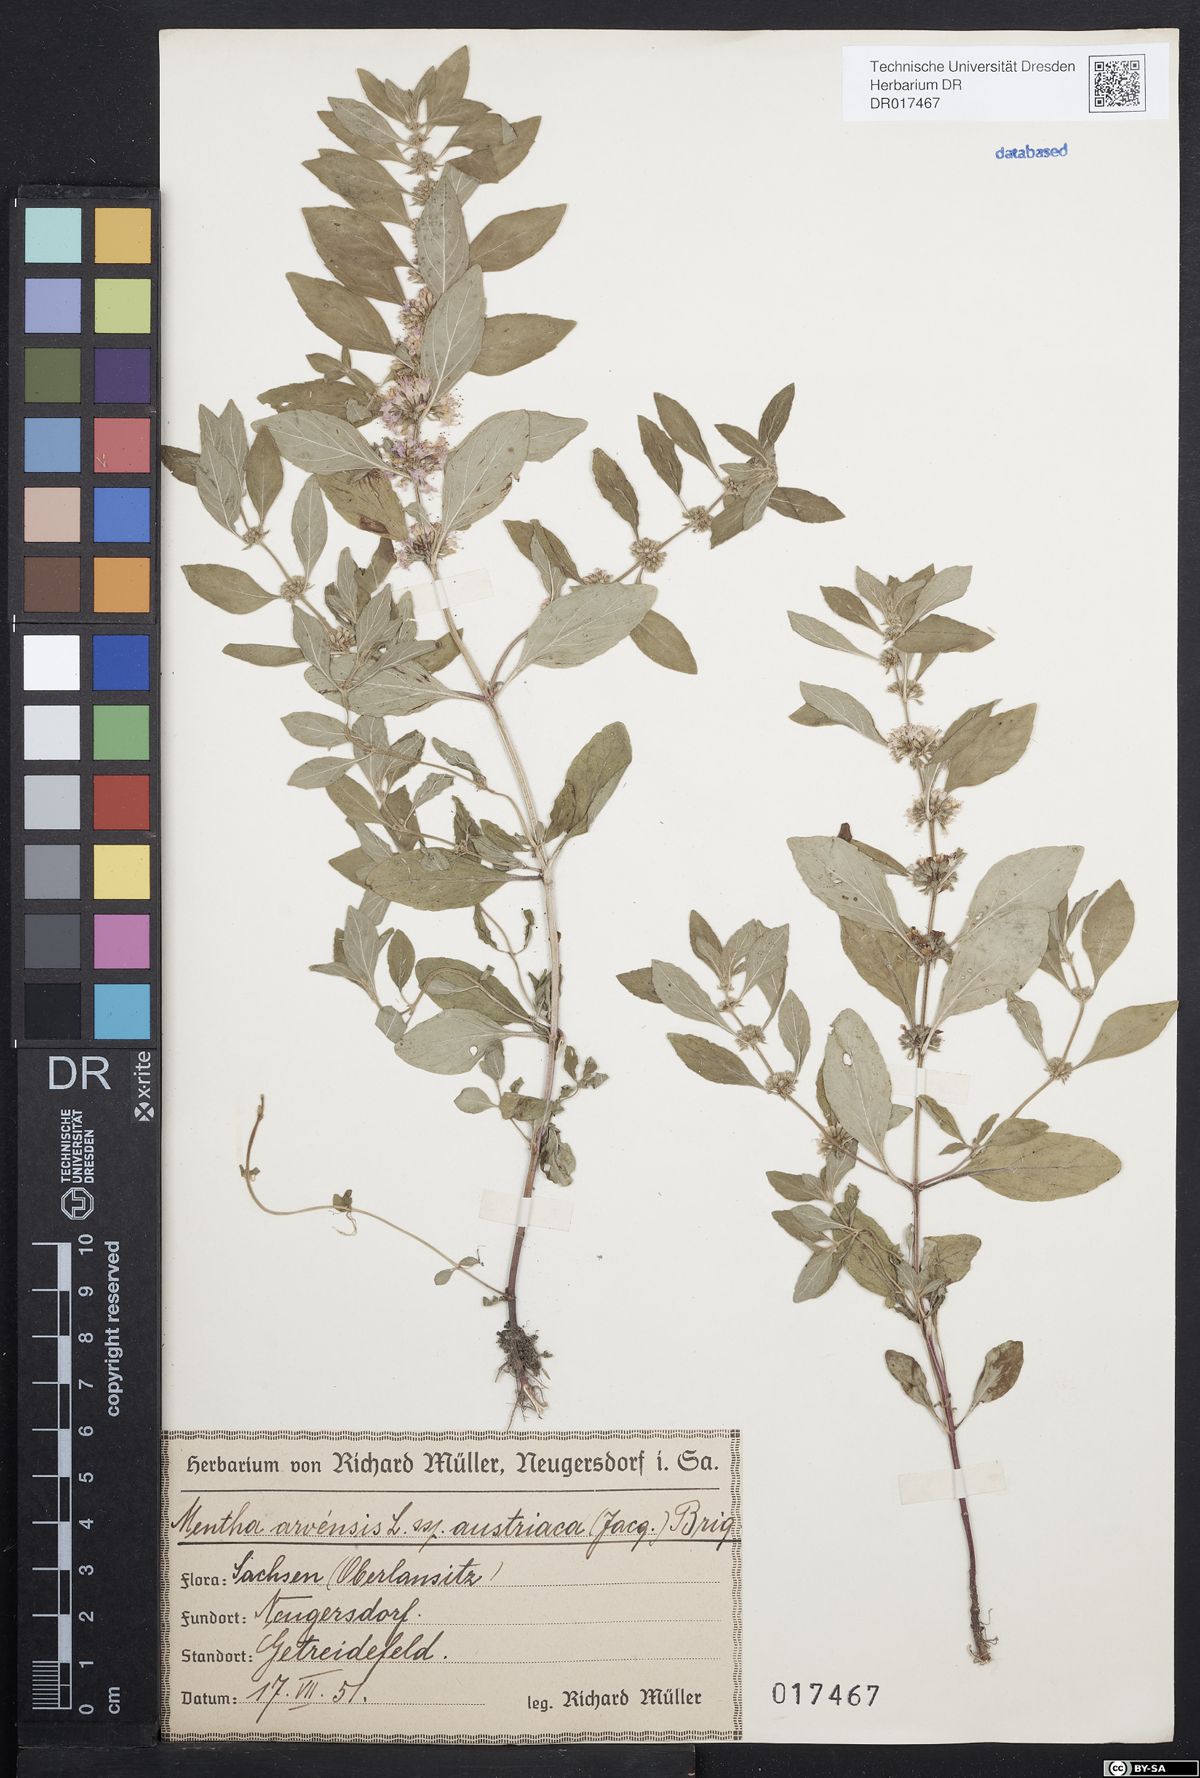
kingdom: Plantae
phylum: Tracheophyta
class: Magnoliopsida
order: Lamiales
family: Lamiaceae
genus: Mentha
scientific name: Mentha arvensis
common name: Corn mint
